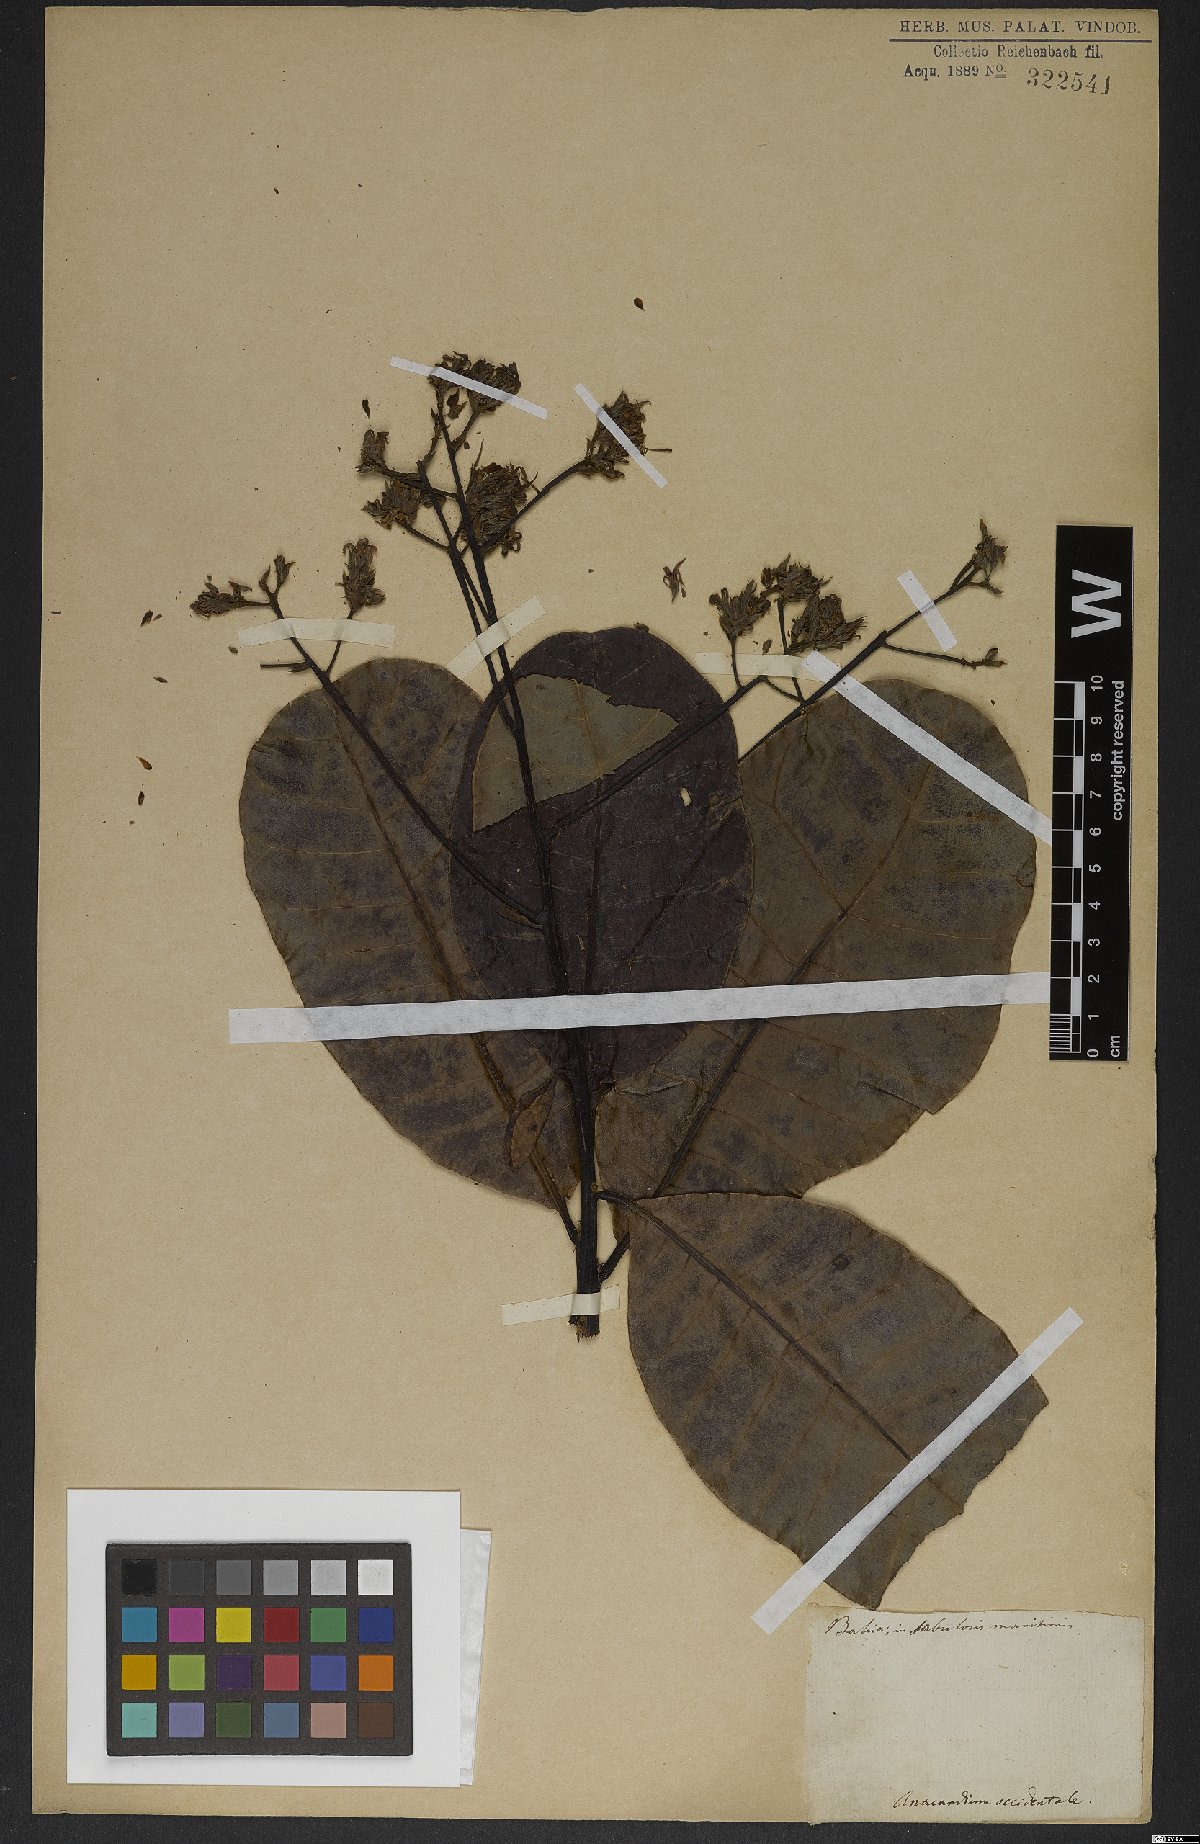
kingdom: Plantae
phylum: Tracheophyta
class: Magnoliopsida
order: Sapindales
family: Anacardiaceae
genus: Anacardium
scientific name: Anacardium occidentale
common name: Cashew
